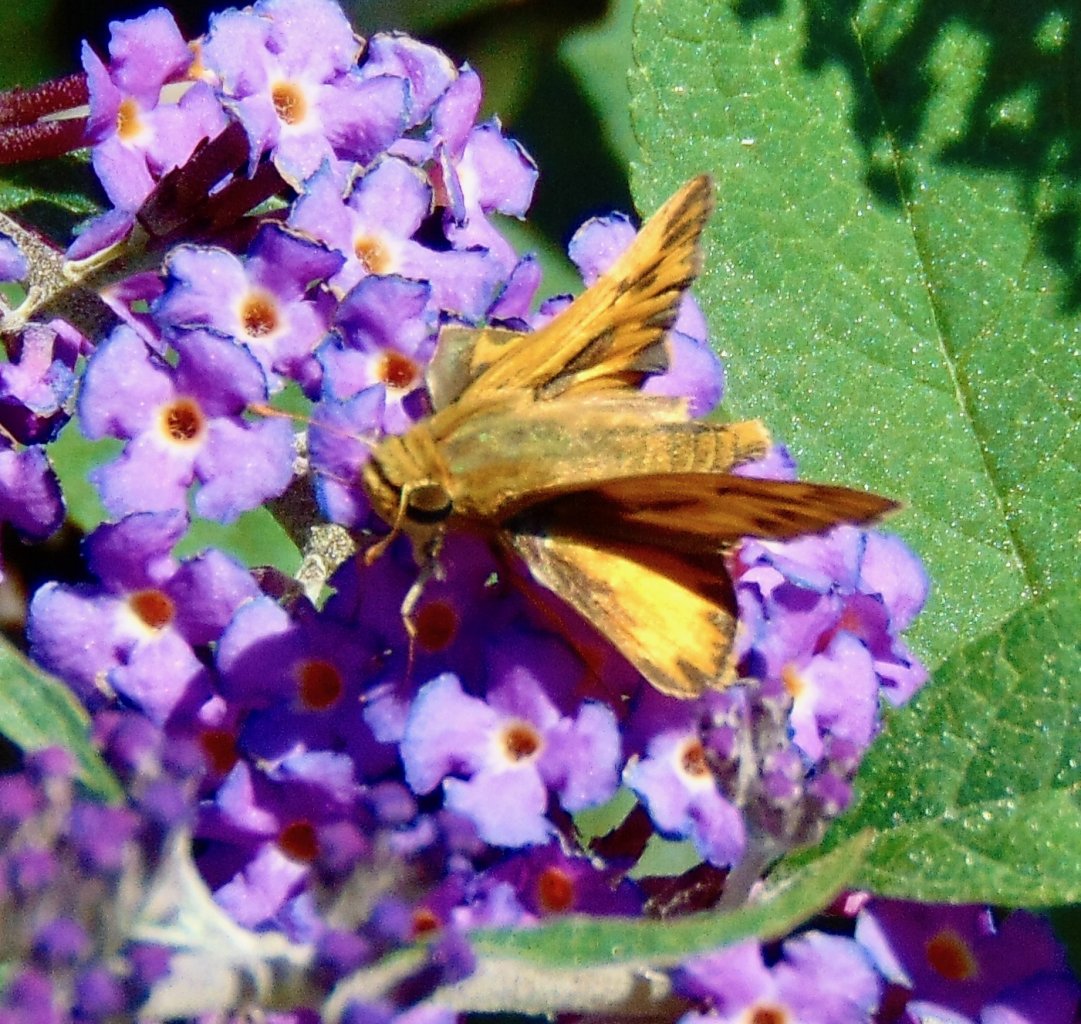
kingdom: Animalia
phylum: Arthropoda
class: Insecta
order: Lepidoptera
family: Hesperiidae
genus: Hylephila
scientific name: Hylephila phyleus
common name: Fiery Skipper
